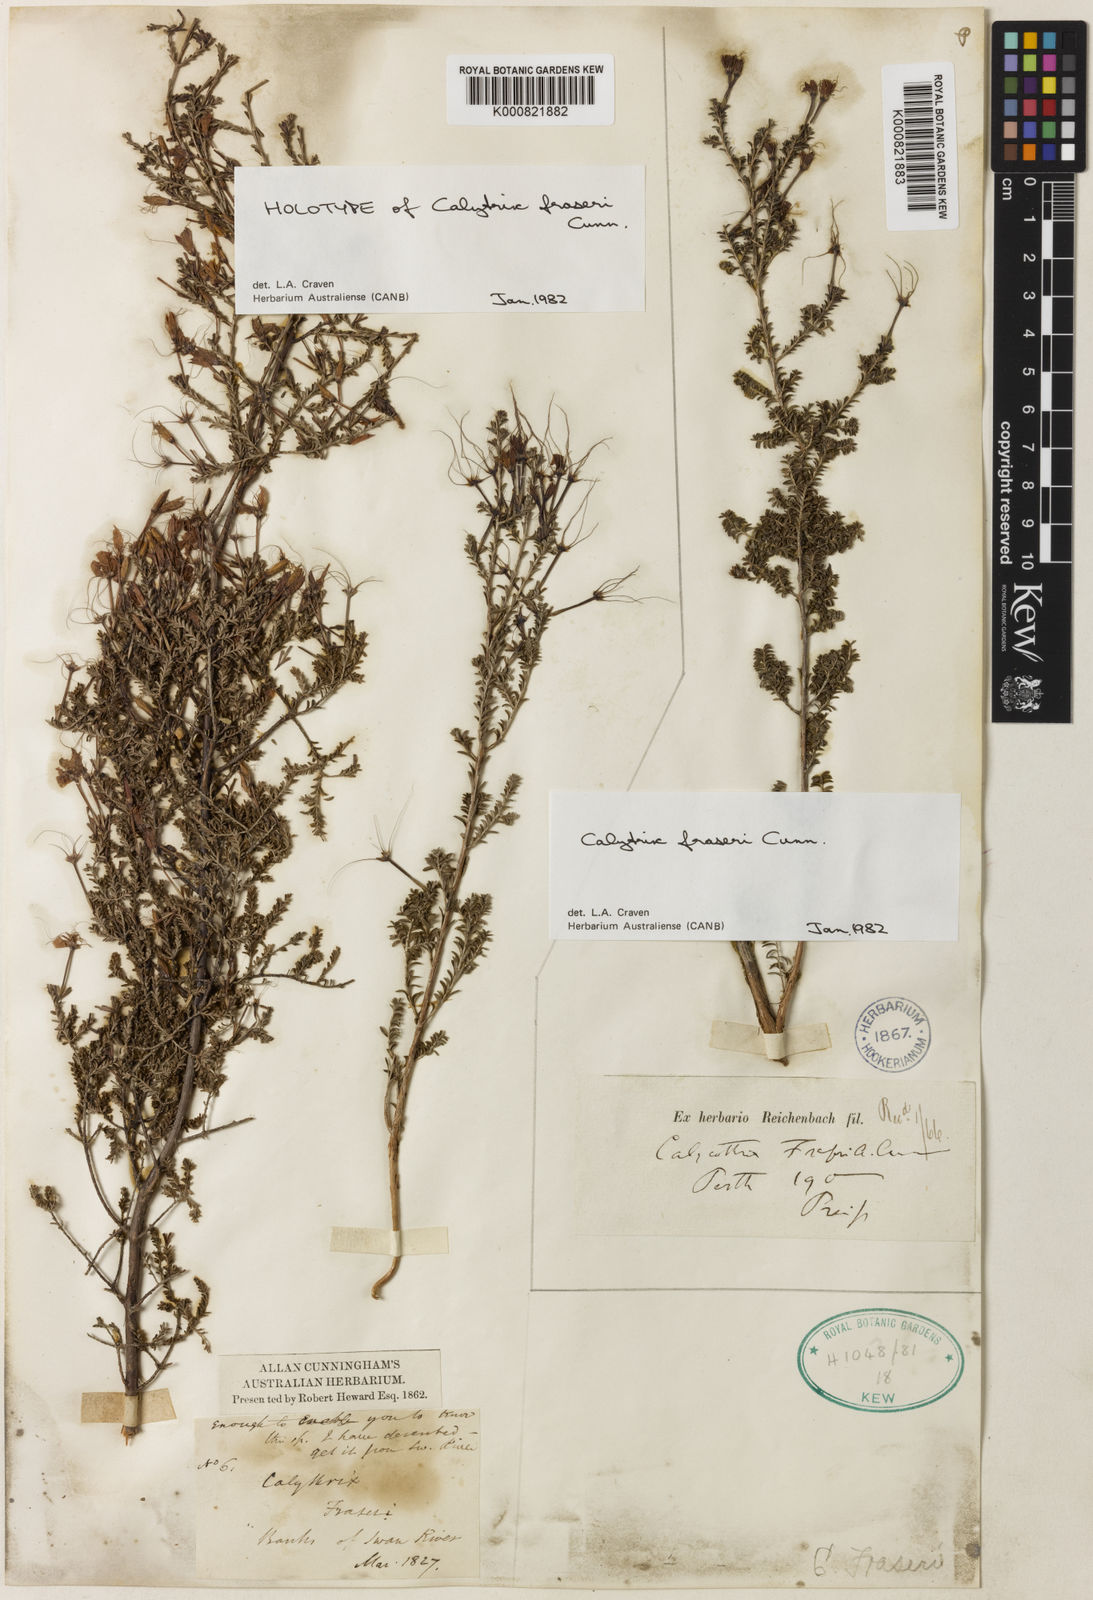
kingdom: Plantae
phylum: Tracheophyta
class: Magnoliopsida
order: Myrtales
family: Myrtaceae
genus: Calytrix
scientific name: Calytrix fraseri
